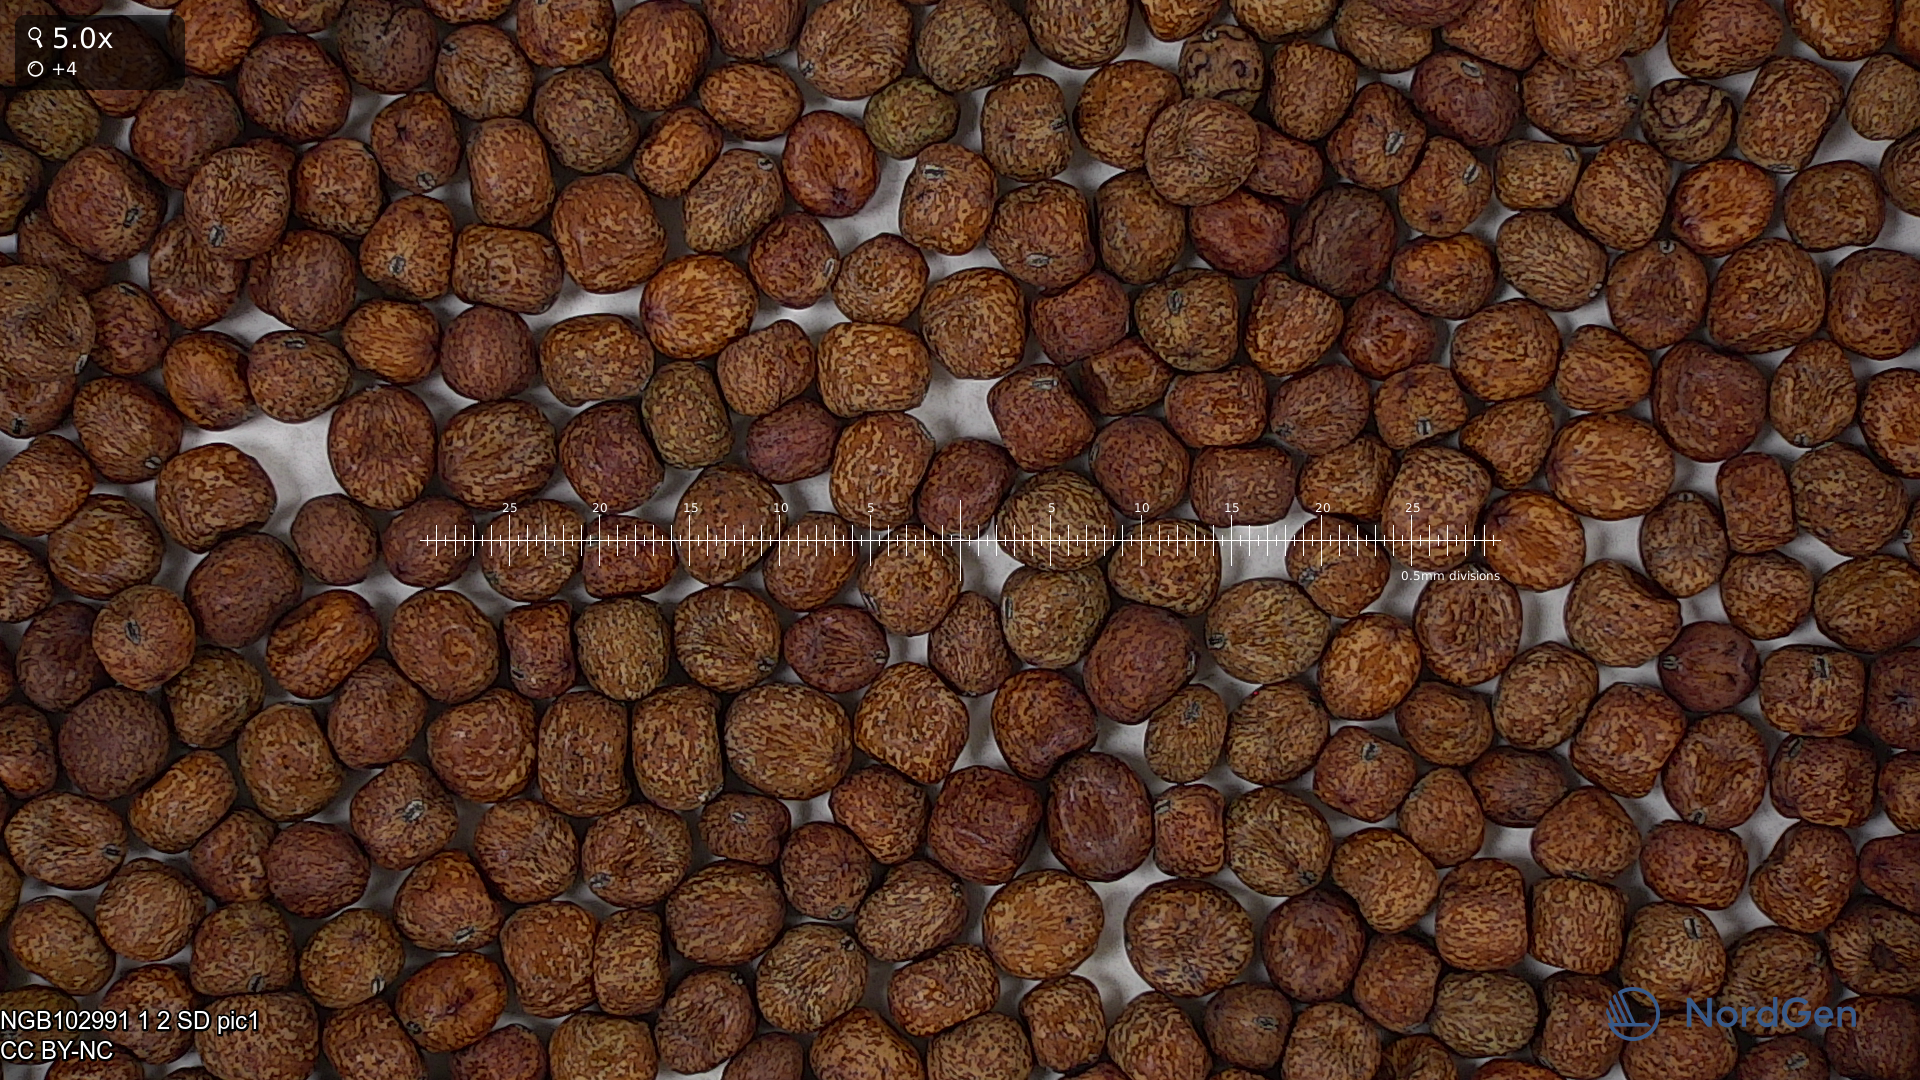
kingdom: Plantae
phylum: Tracheophyta
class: Magnoliopsida
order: Fabales
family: Fabaceae
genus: Lathyrus
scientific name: Lathyrus oleraceus
